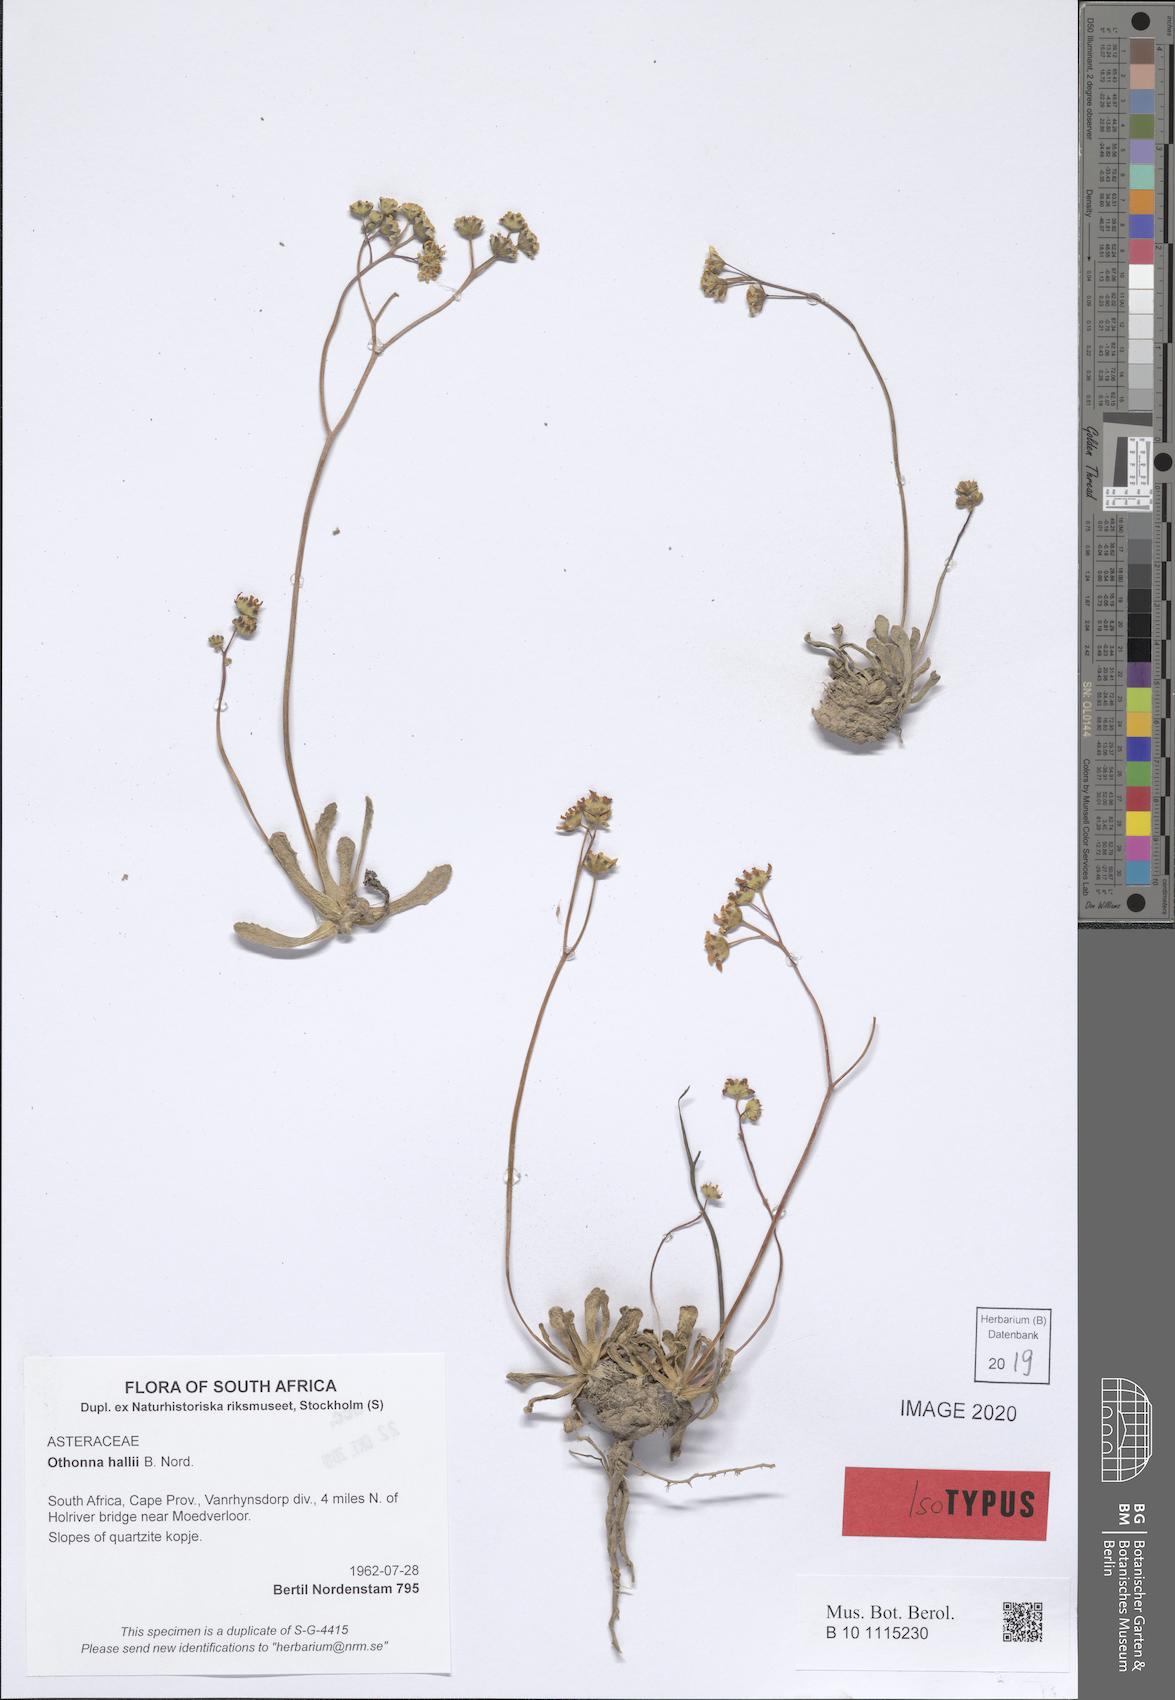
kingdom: Plantae
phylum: Tracheophyta
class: Magnoliopsida
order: Asterales
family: Asteraceae
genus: Othonna
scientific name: Othonna hallii
